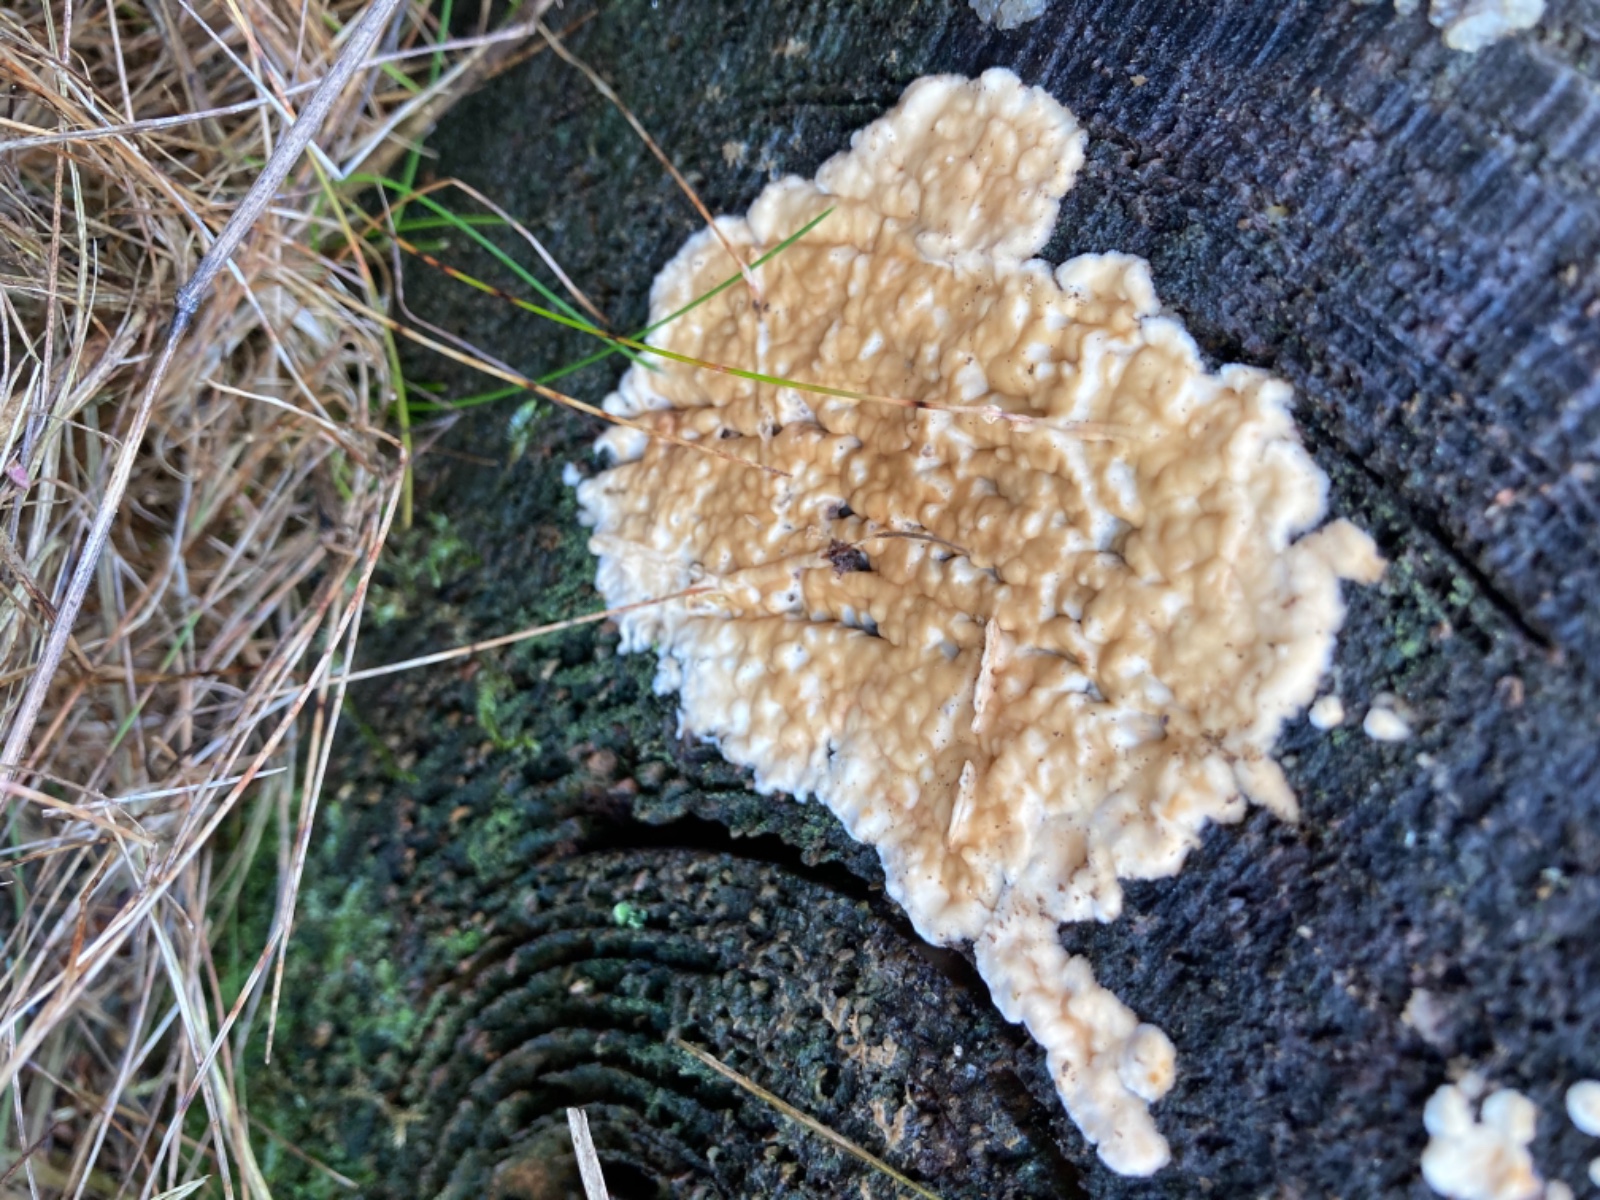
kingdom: Fungi
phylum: Basidiomycota
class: Agaricomycetes
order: Agaricales
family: Physalacriaceae
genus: Cylindrobasidium
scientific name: Cylindrobasidium evolvens
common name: sprækkehinde
